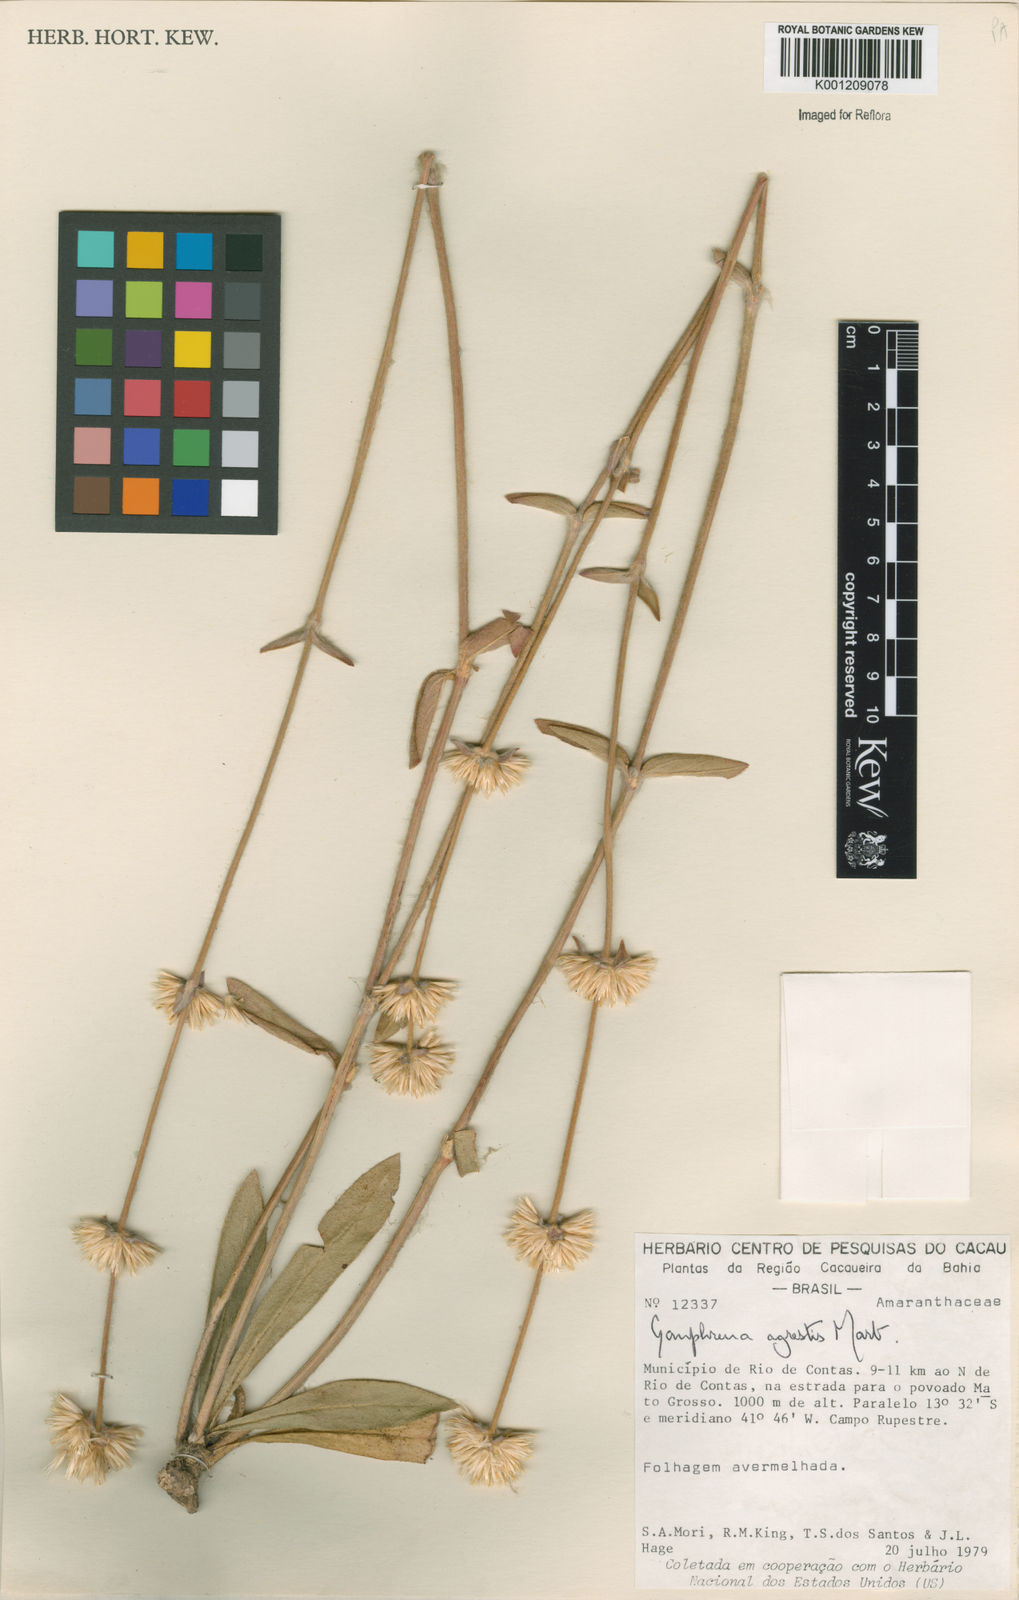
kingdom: Plantae
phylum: Tracheophyta
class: Magnoliopsida
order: Caryophyllales
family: Amaranthaceae
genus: Gomphrena
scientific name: Gomphrena agrestis
